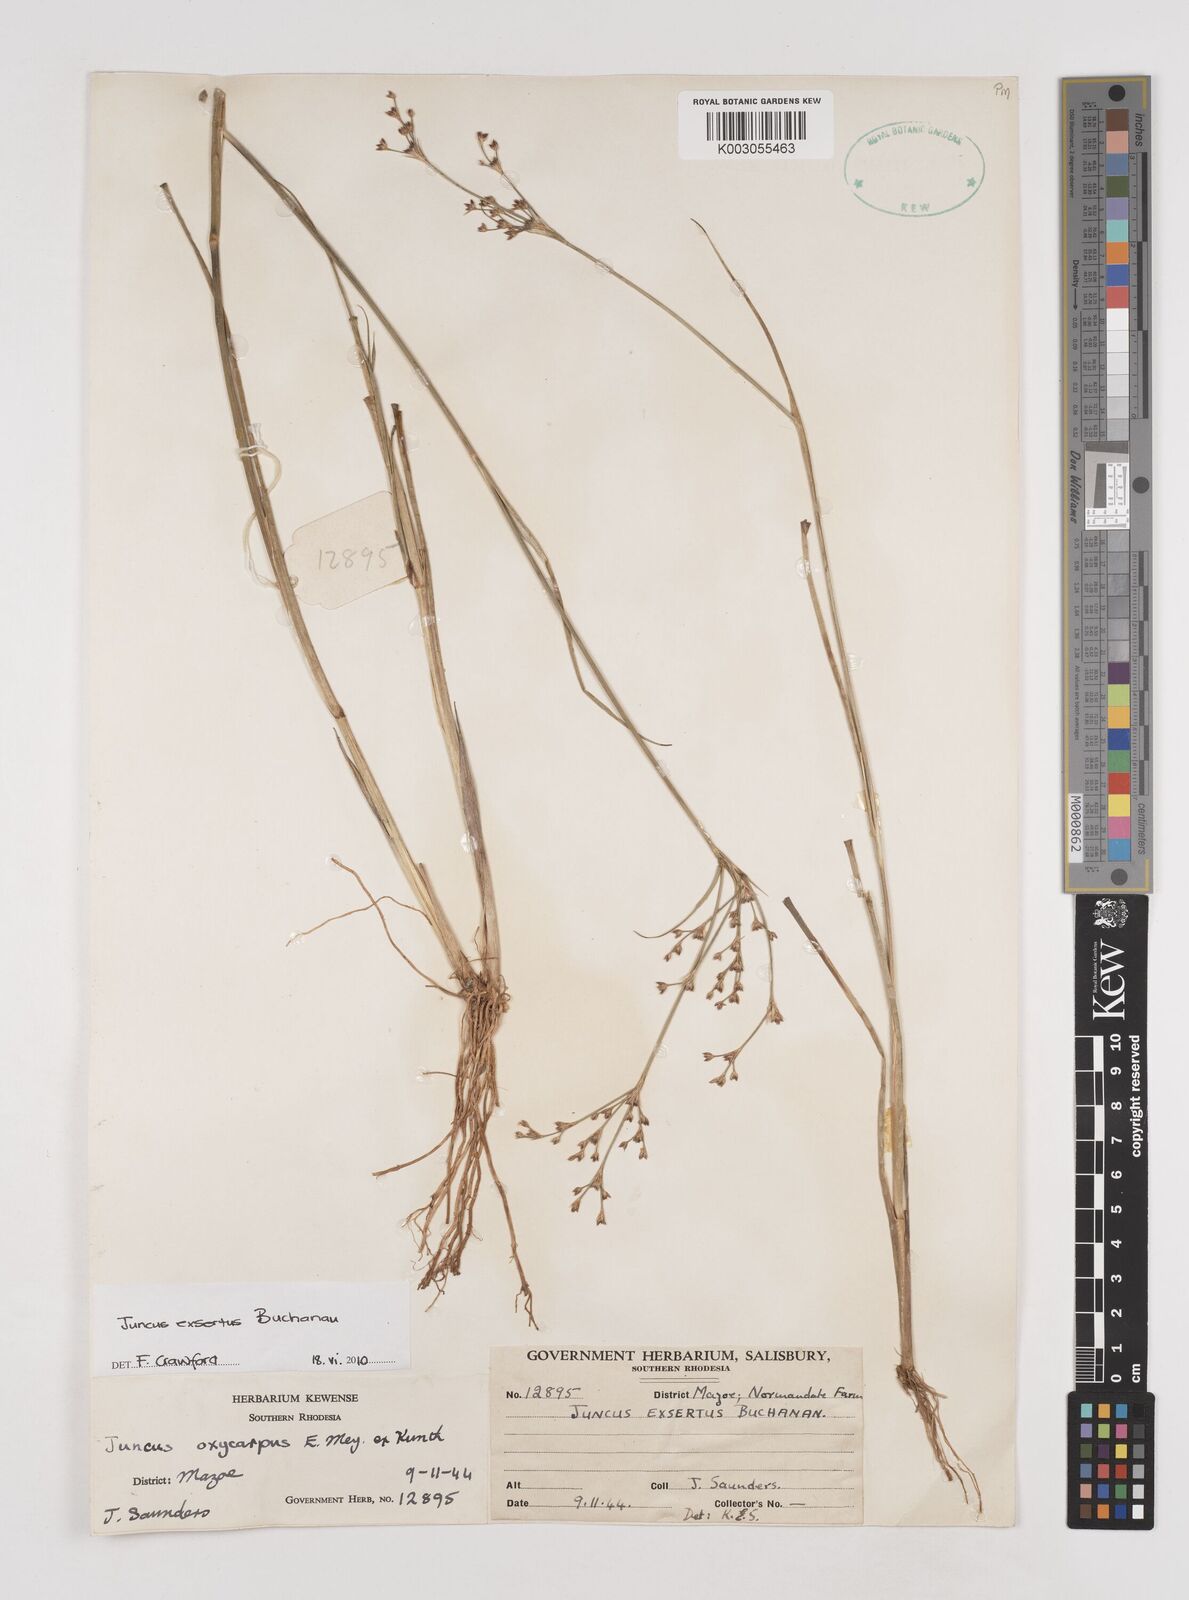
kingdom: Plantae
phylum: Tracheophyta
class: Liliopsida
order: Poales
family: Juncaceae
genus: Juncus
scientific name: Juncus exsertus
